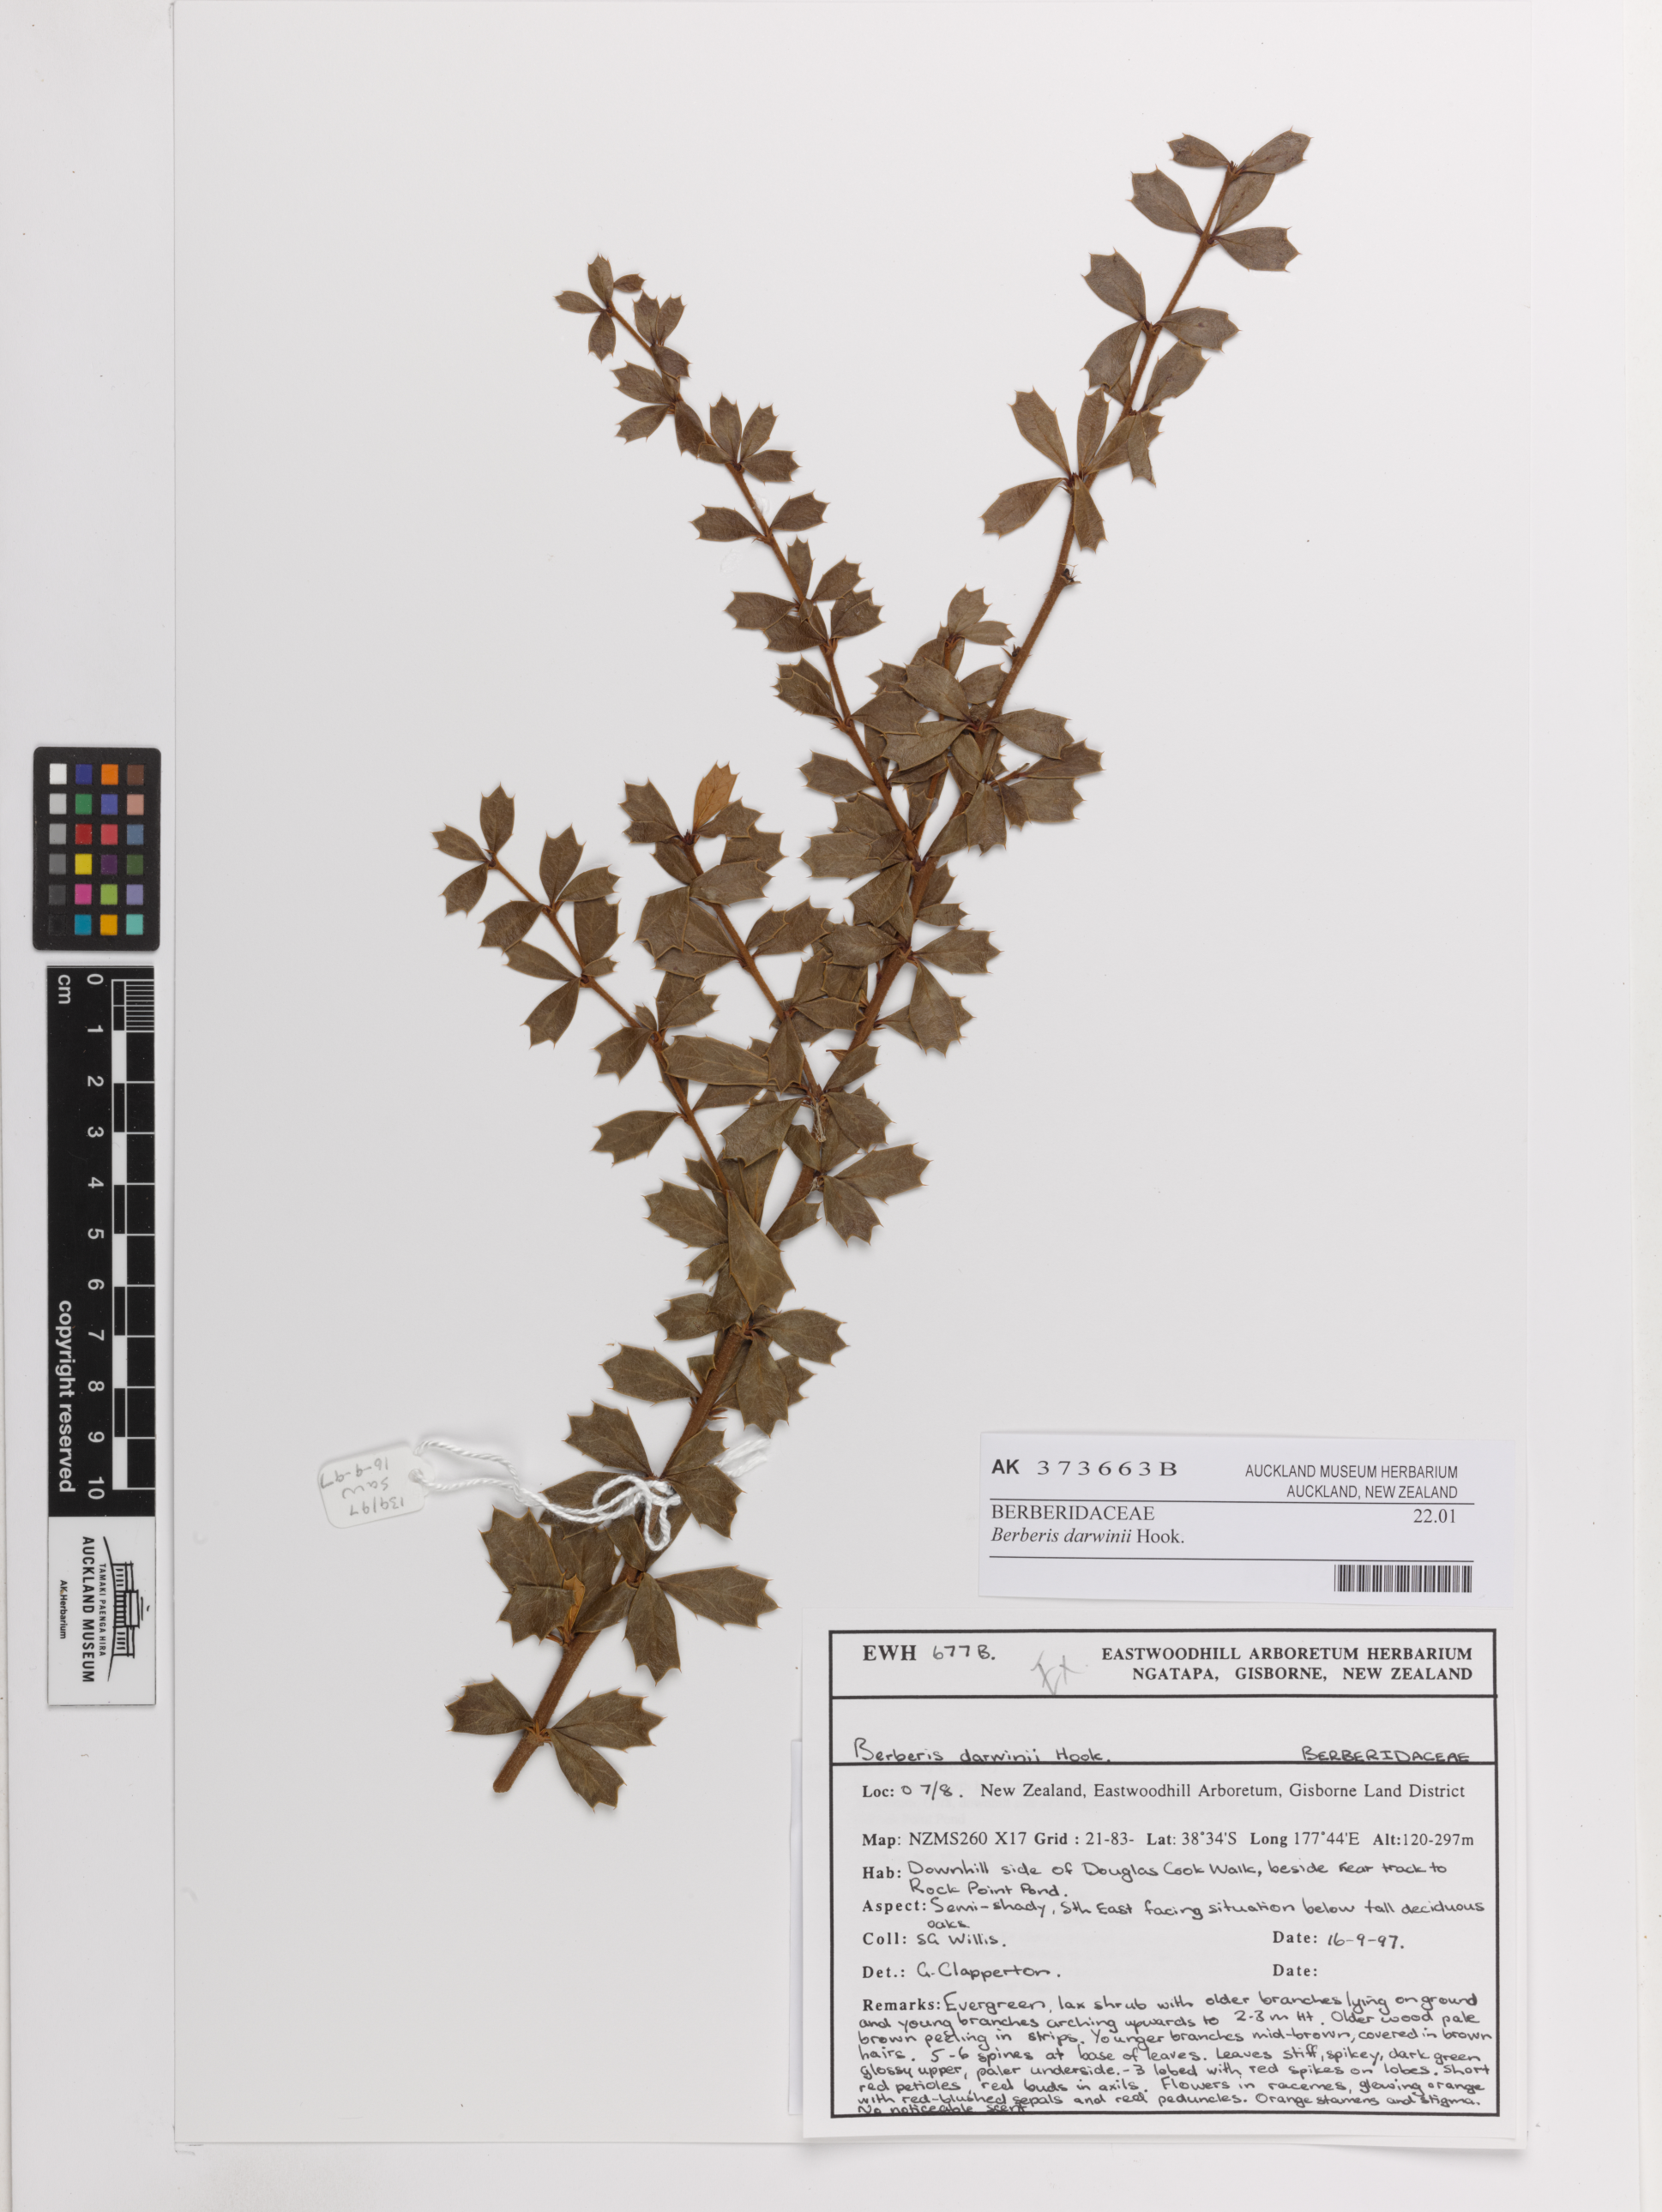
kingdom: Plantae
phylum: Tracheophyta
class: Magnoliopsida
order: Ranunculales
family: Berberidaceae
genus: Berberis
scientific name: Berberis darwinii
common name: Darwin's barberry
